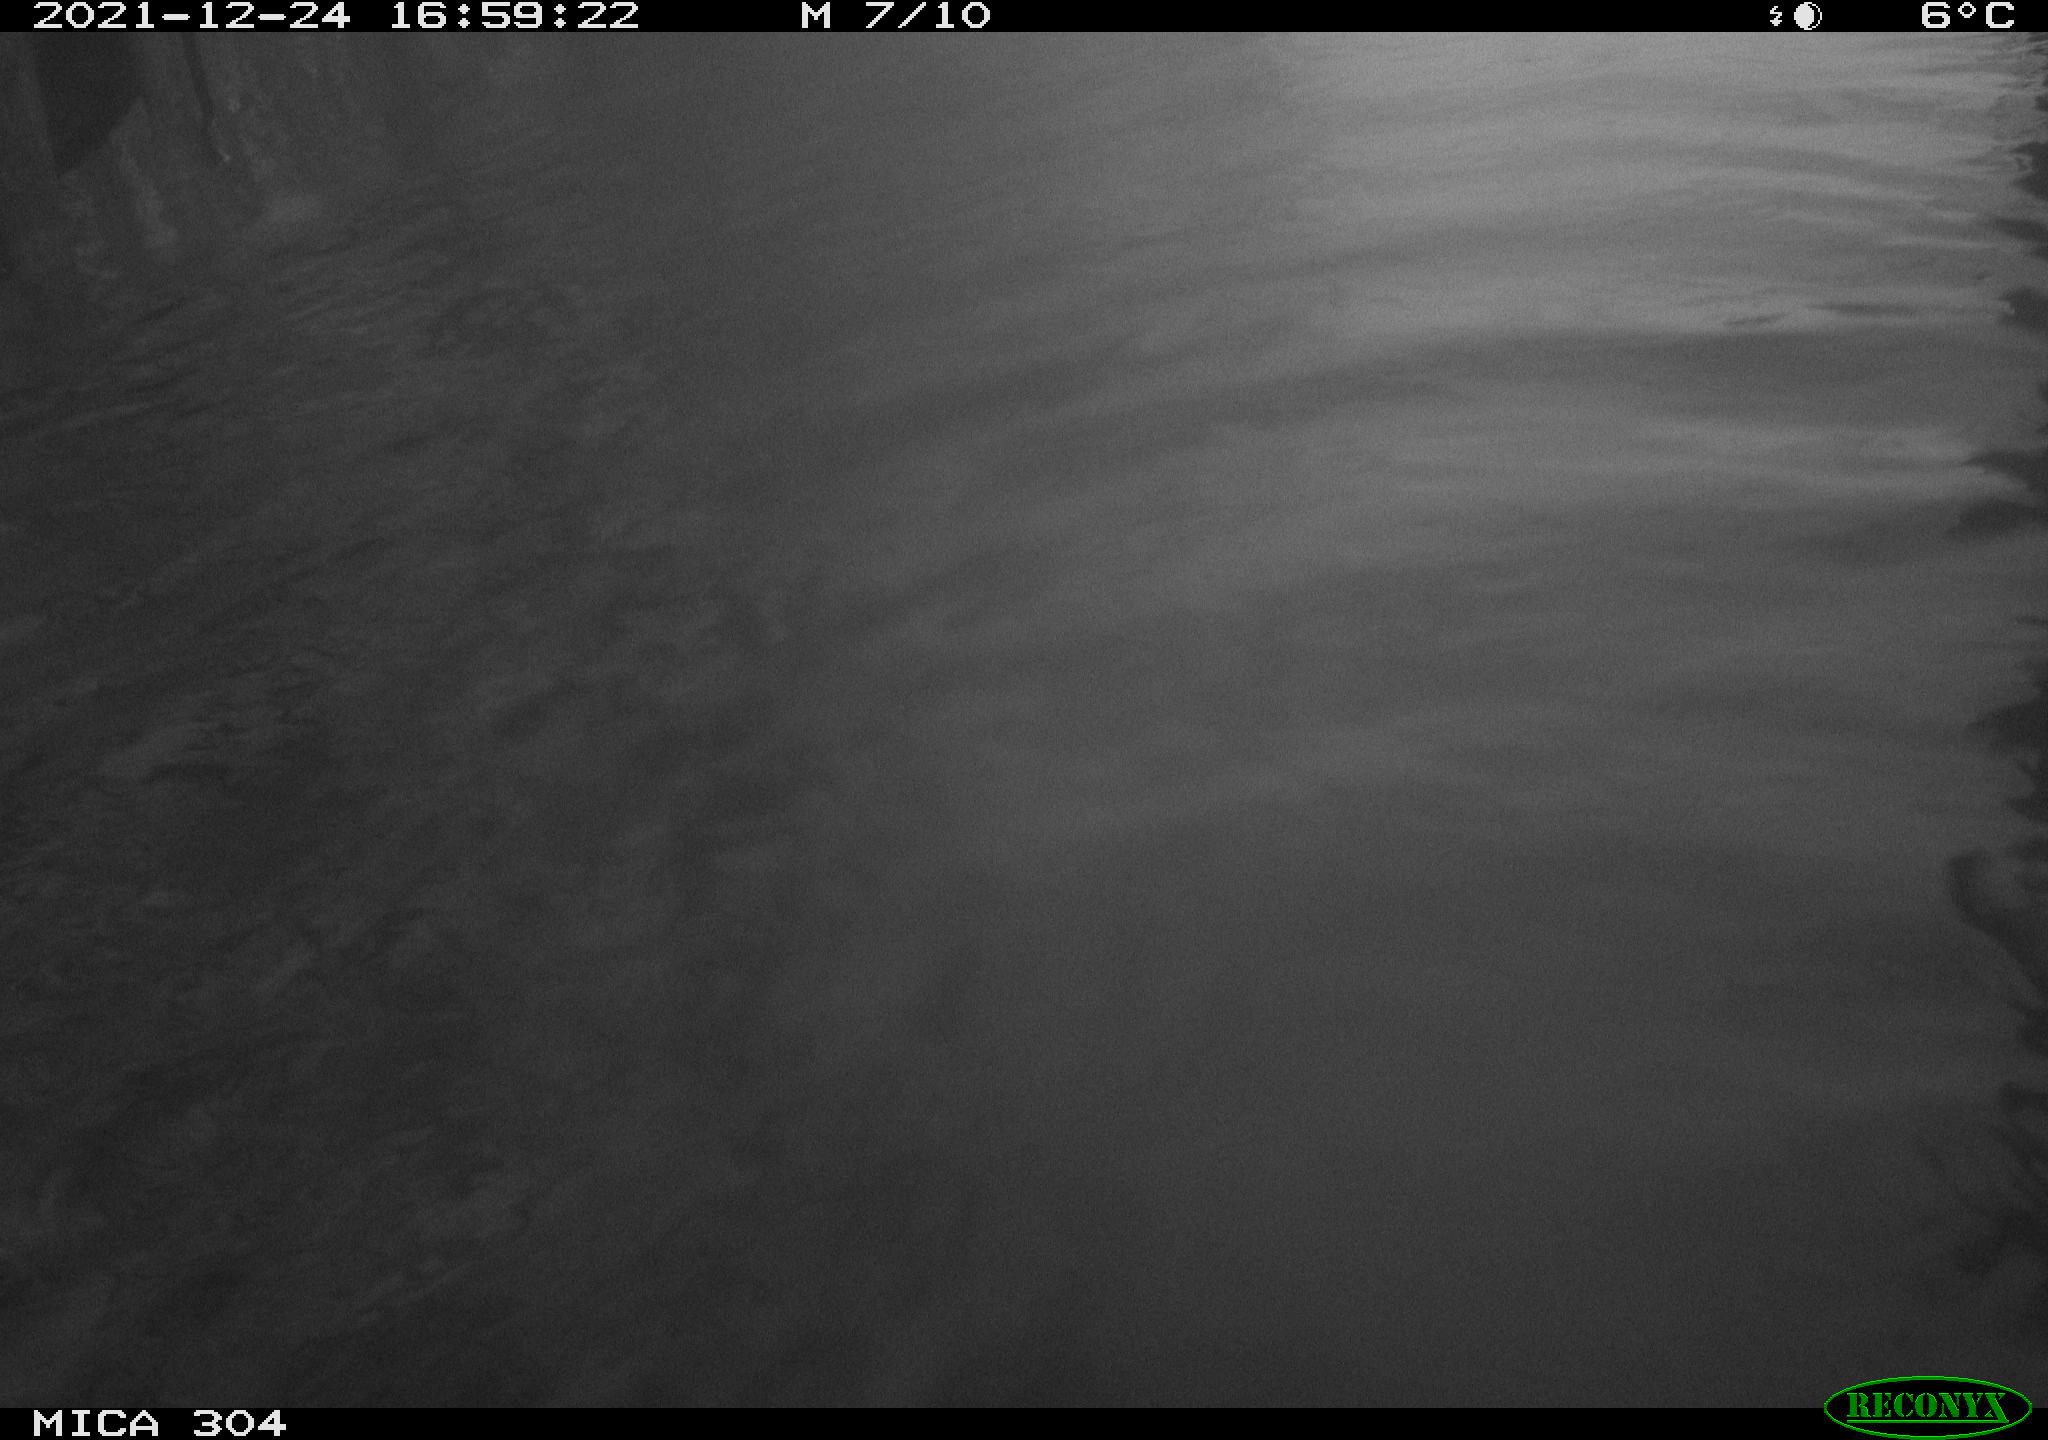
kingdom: Animalia
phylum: Chordata
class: Aves
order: Anseriformes
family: Anatidae
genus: Anas
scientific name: Anas
